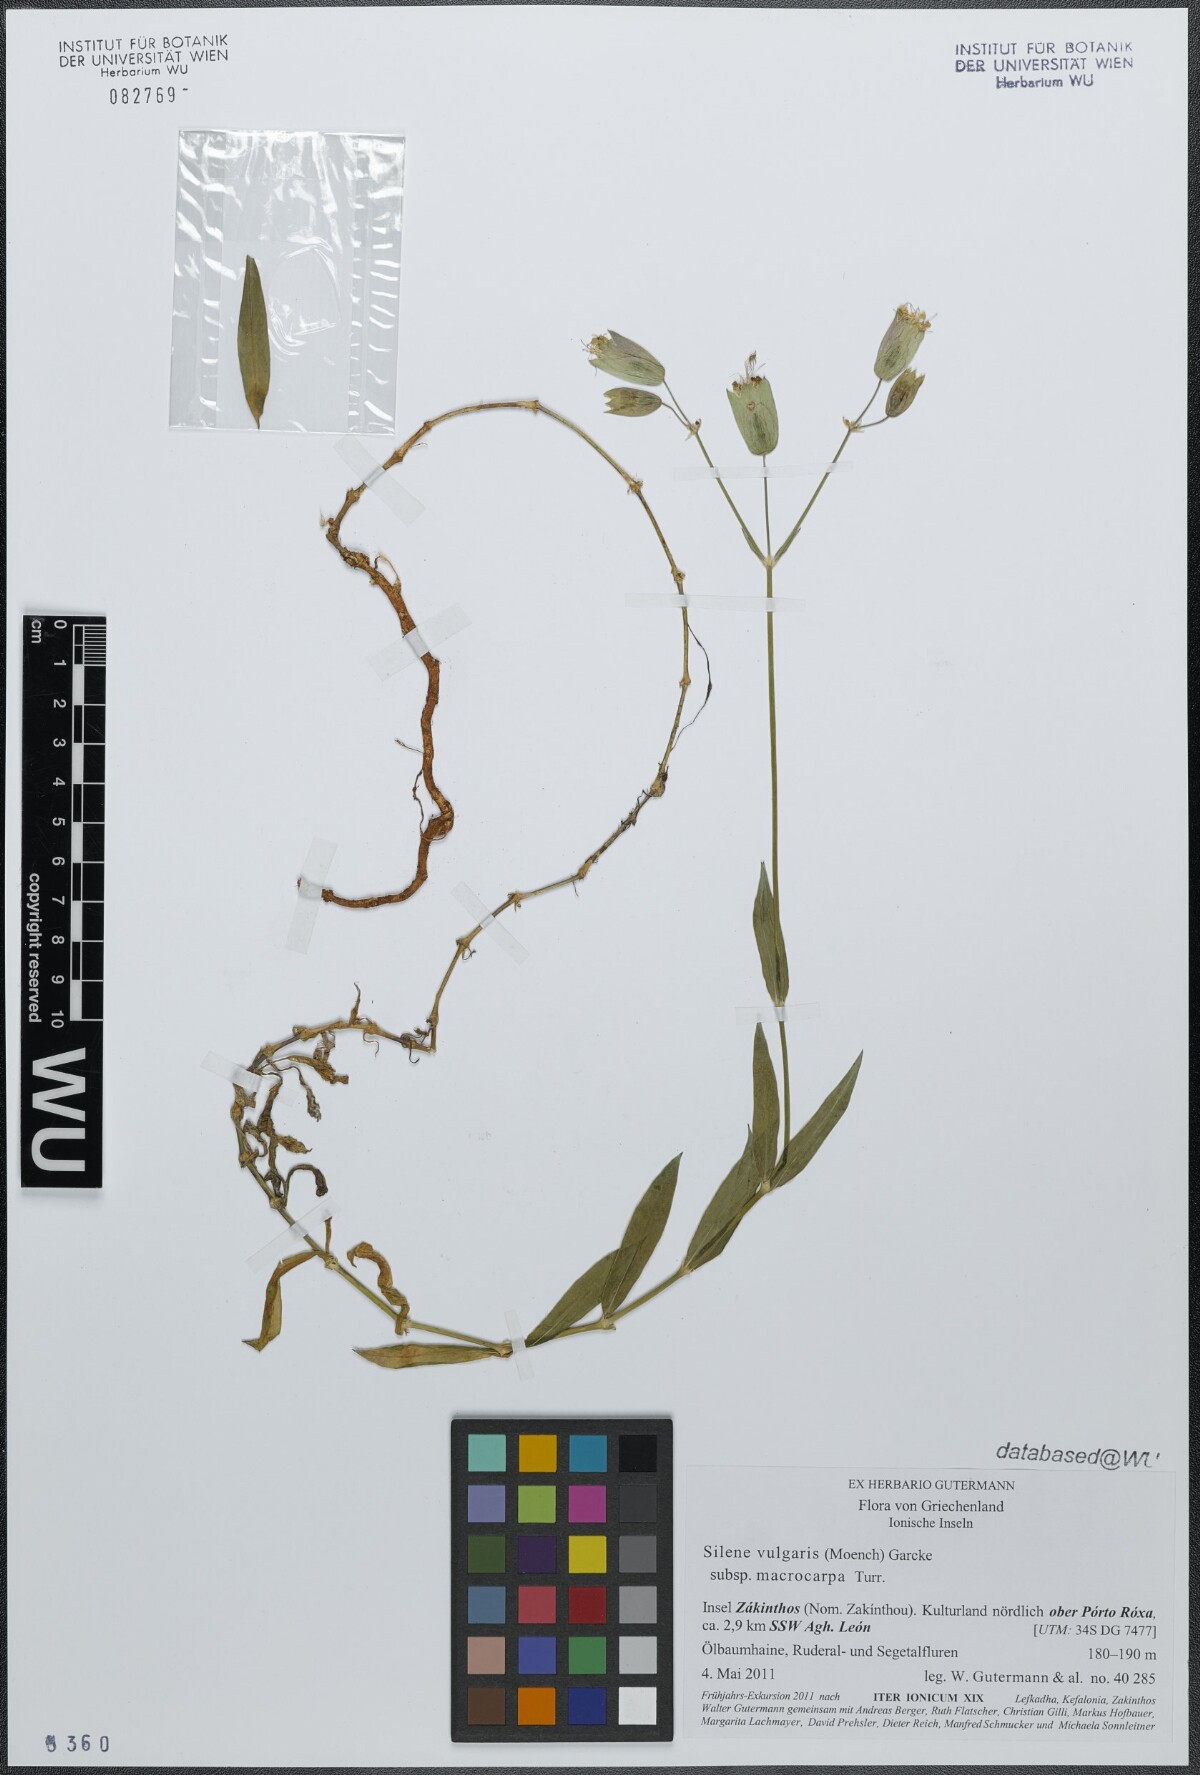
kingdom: Plantae
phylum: Tracheophyta
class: Magnoliopsida
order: Caryophyllales
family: Caryophyllaceae
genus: Silene
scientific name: Silene vulgaris
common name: Bladder campion
